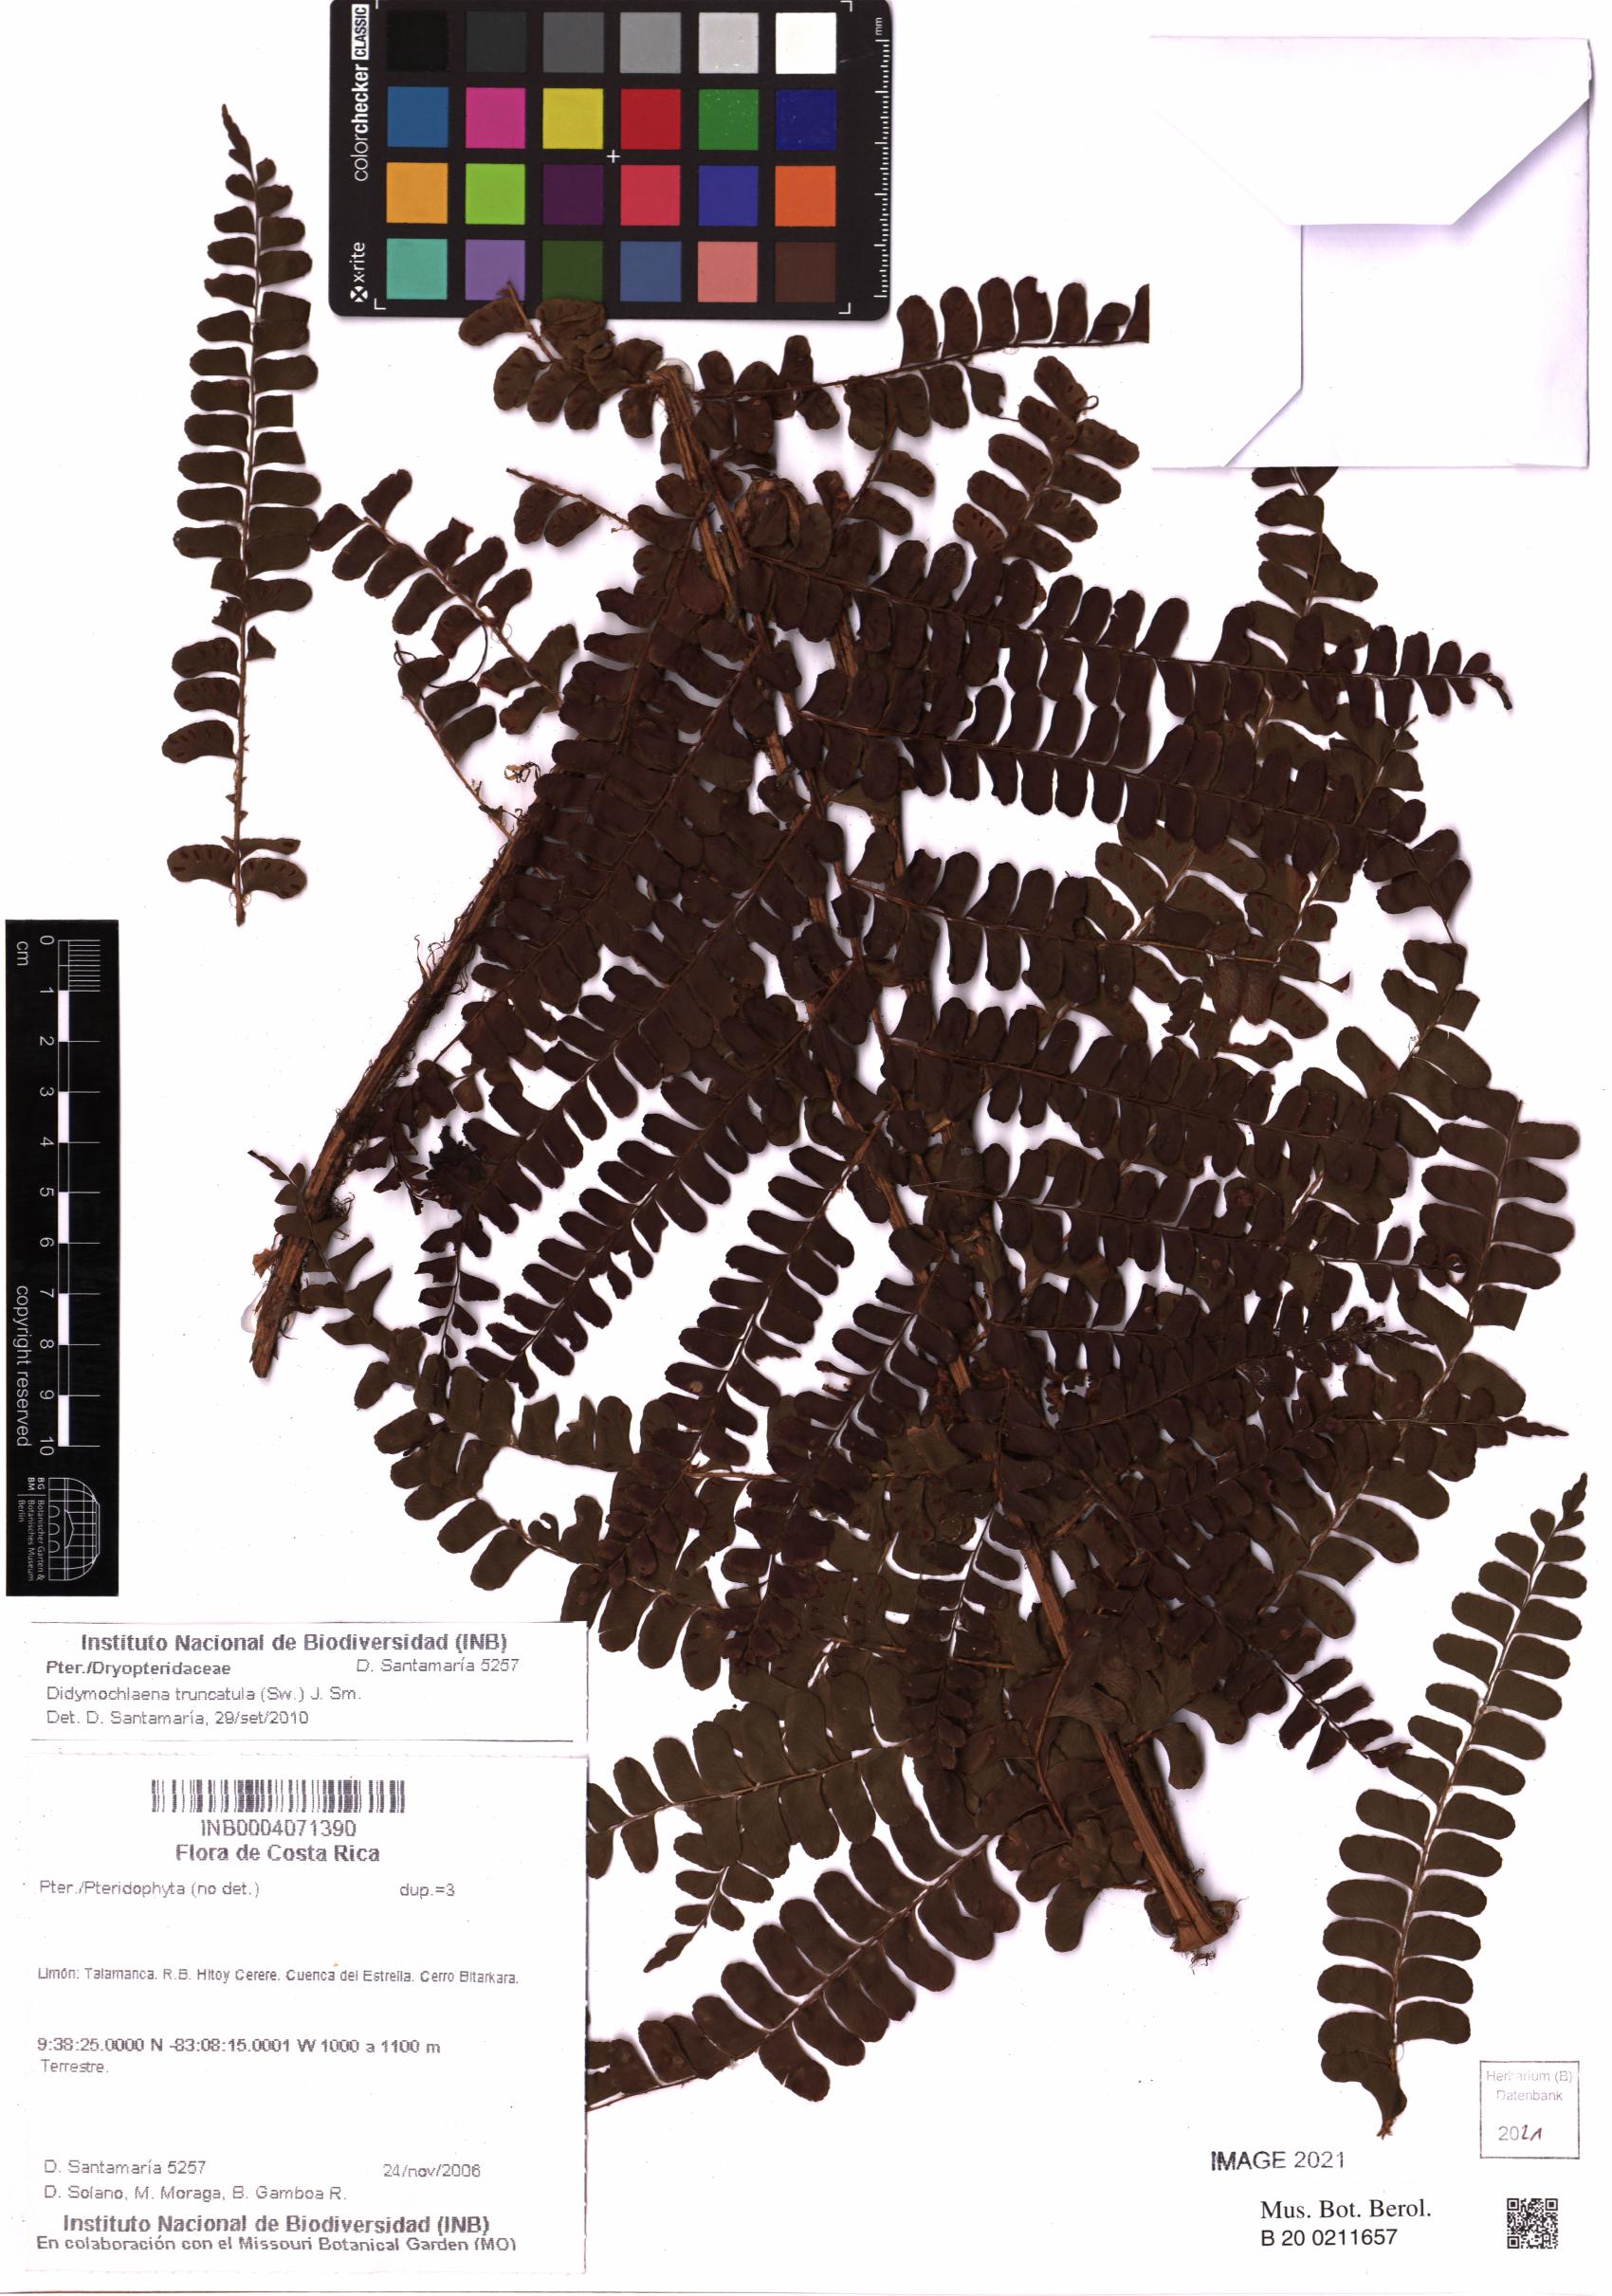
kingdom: Plantae
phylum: Tracheophyta
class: Polypodiopsida
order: Polypodiales
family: Didymochlaenaceae
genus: Didymochlaena
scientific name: Didymochlaena truncatula
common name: Mahogany fern
